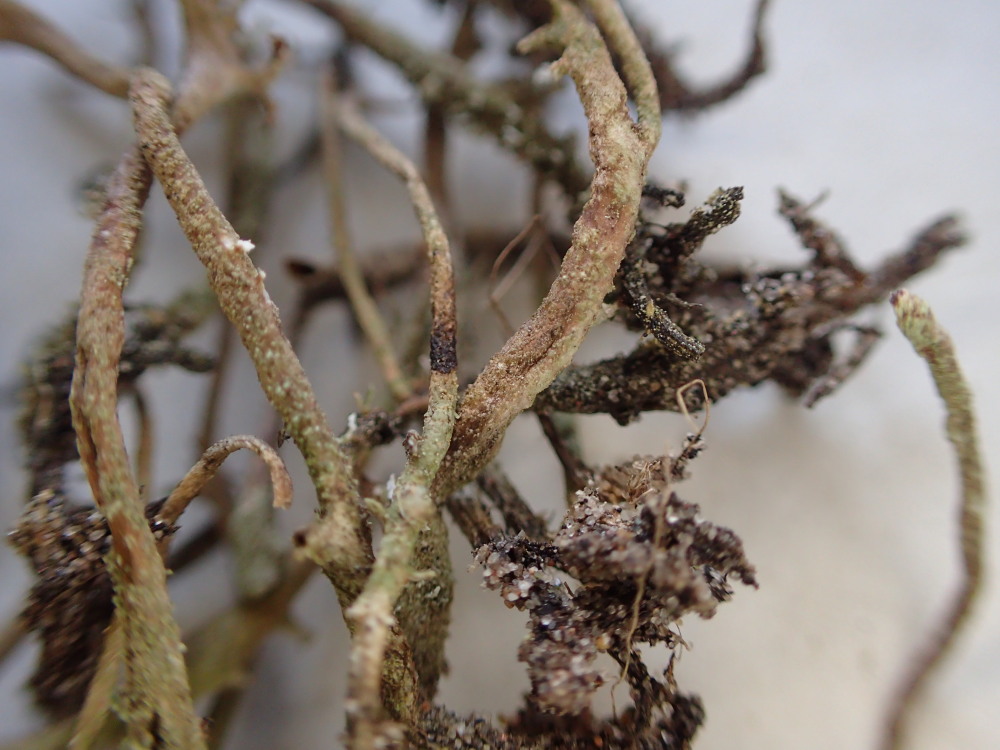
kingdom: Fungi
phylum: Ascomycota
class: Lecanoromycetes
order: Lecanorales
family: Cladoniaceae
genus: Cladonia
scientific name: Cladonia glauca
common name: grågrøn bægerlav
